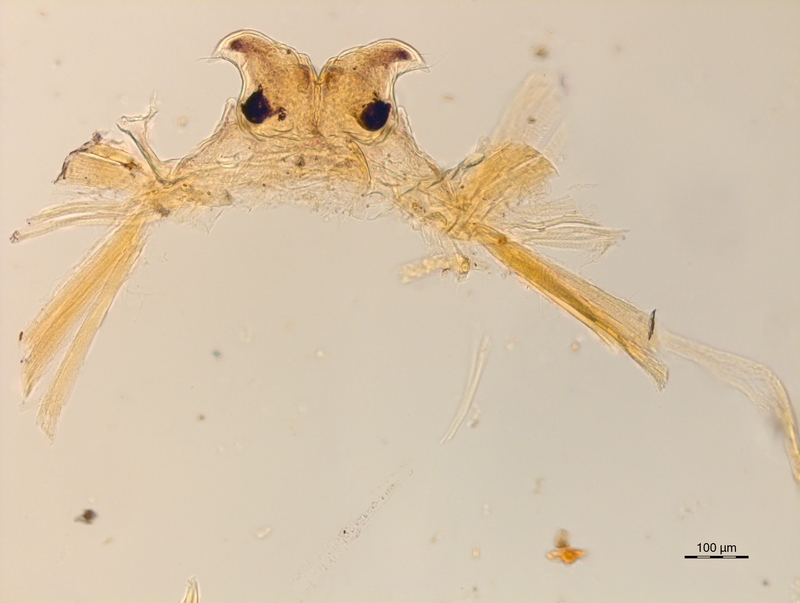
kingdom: Animalia
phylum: Arthropoda
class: Diplopoda
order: Chordeumatida
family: Craspedosomatidae
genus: Ochogona
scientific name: Ochogona caroli
